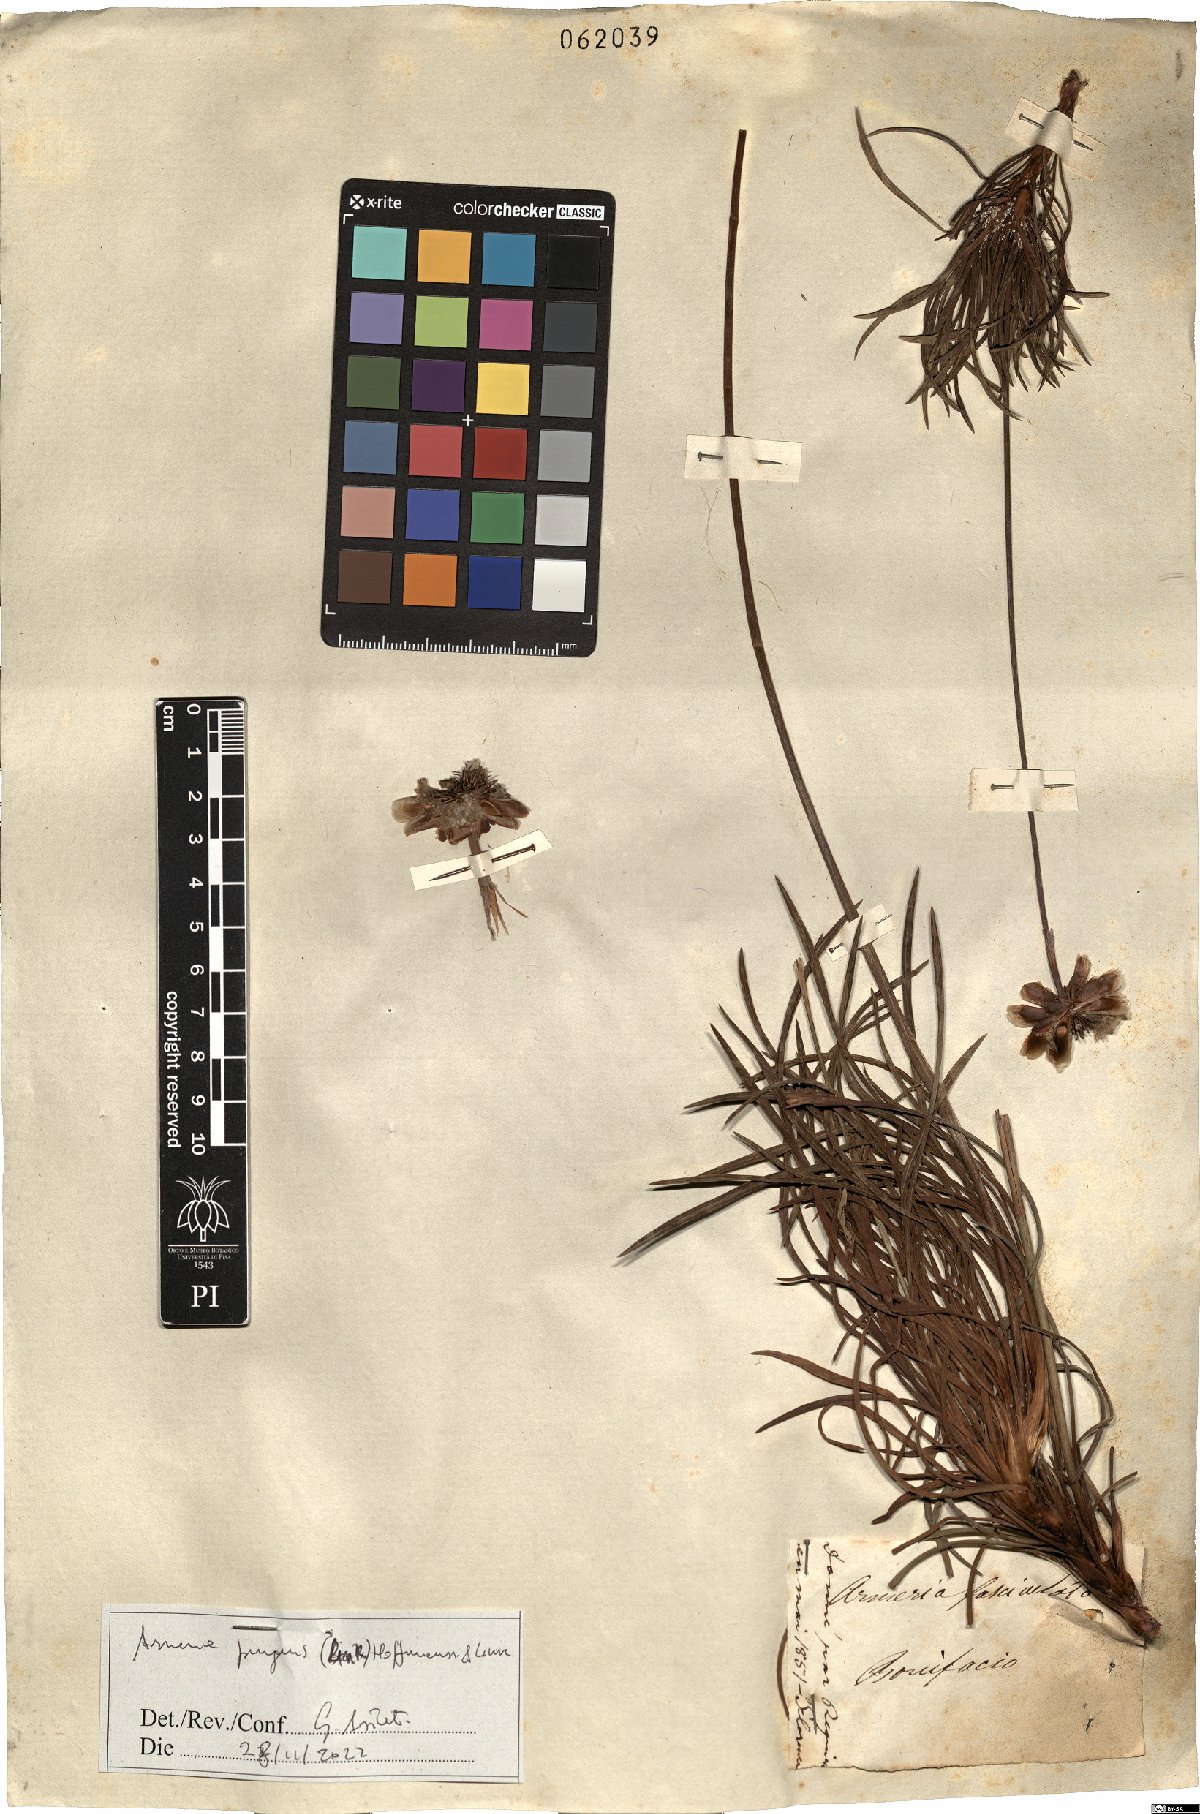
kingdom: Plantae
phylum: Tracheophyta
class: Magnoliopsida
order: Caryophyllales
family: Plumbaginaceae
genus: Armeria
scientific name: Armeria pungens
